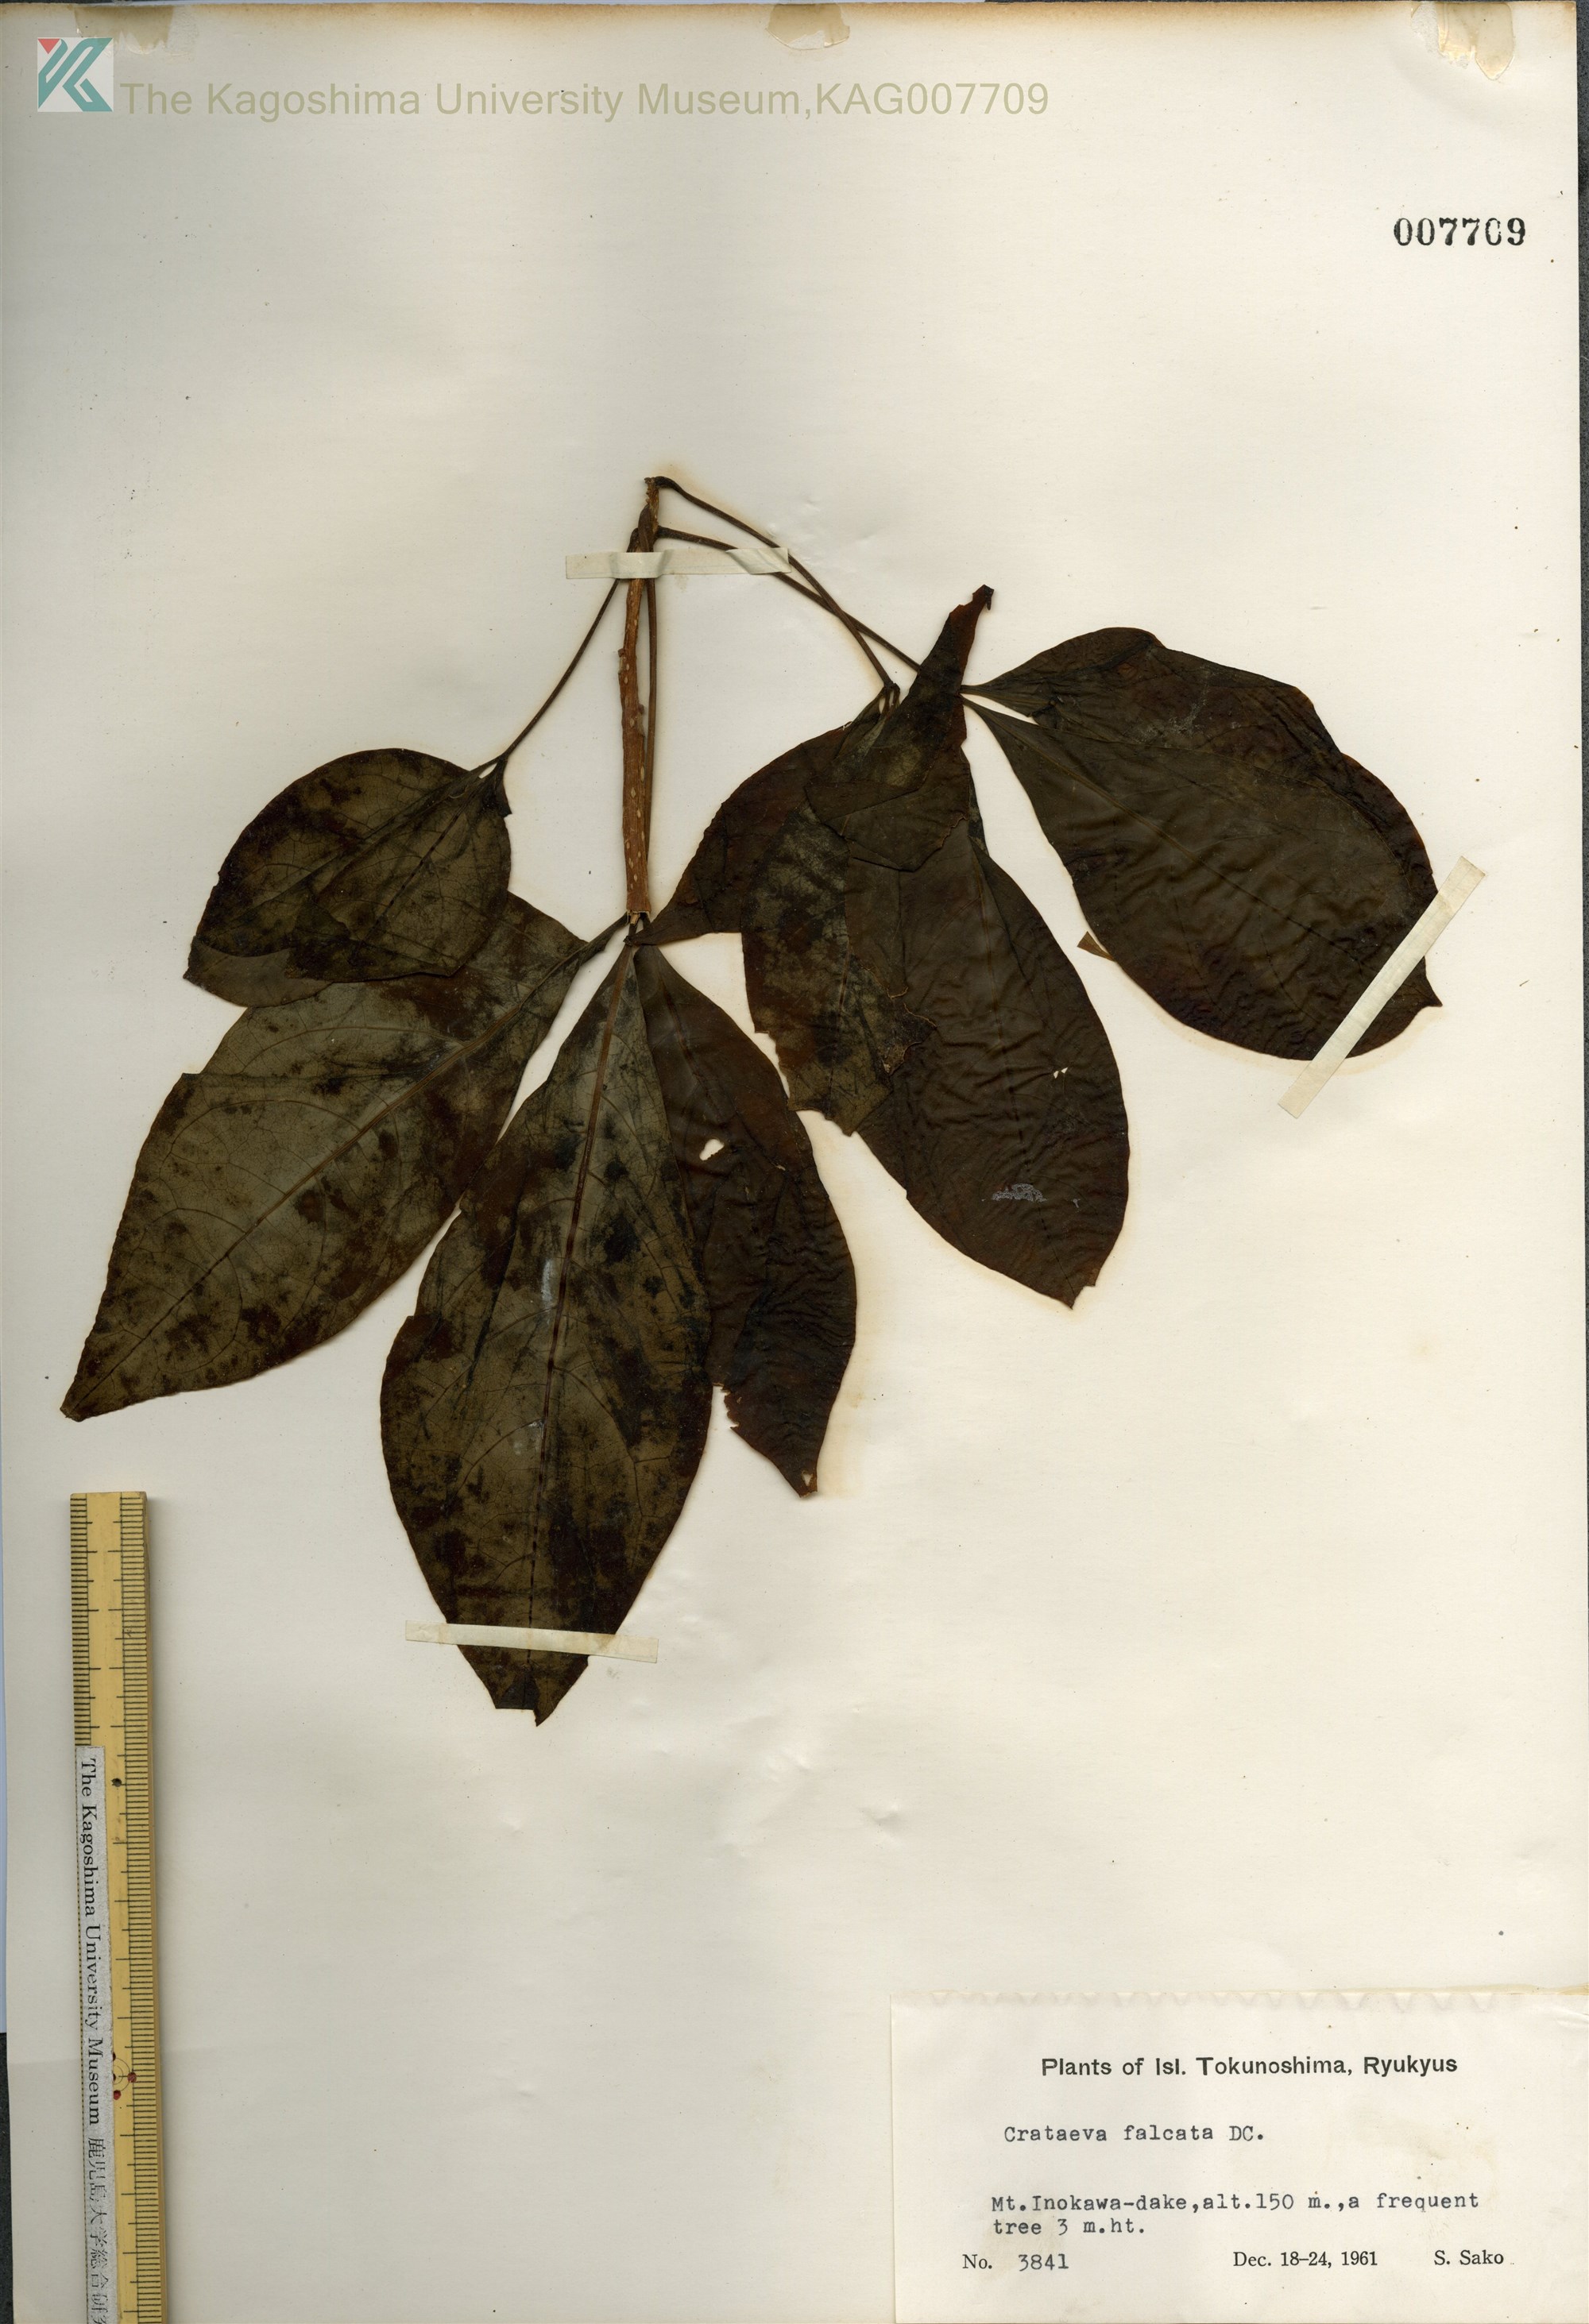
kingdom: Plantae
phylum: Tracheophyta
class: Magnoliopsida
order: Brassicales
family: Capparaceae
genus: Crateva
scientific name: Crateva formosensis
